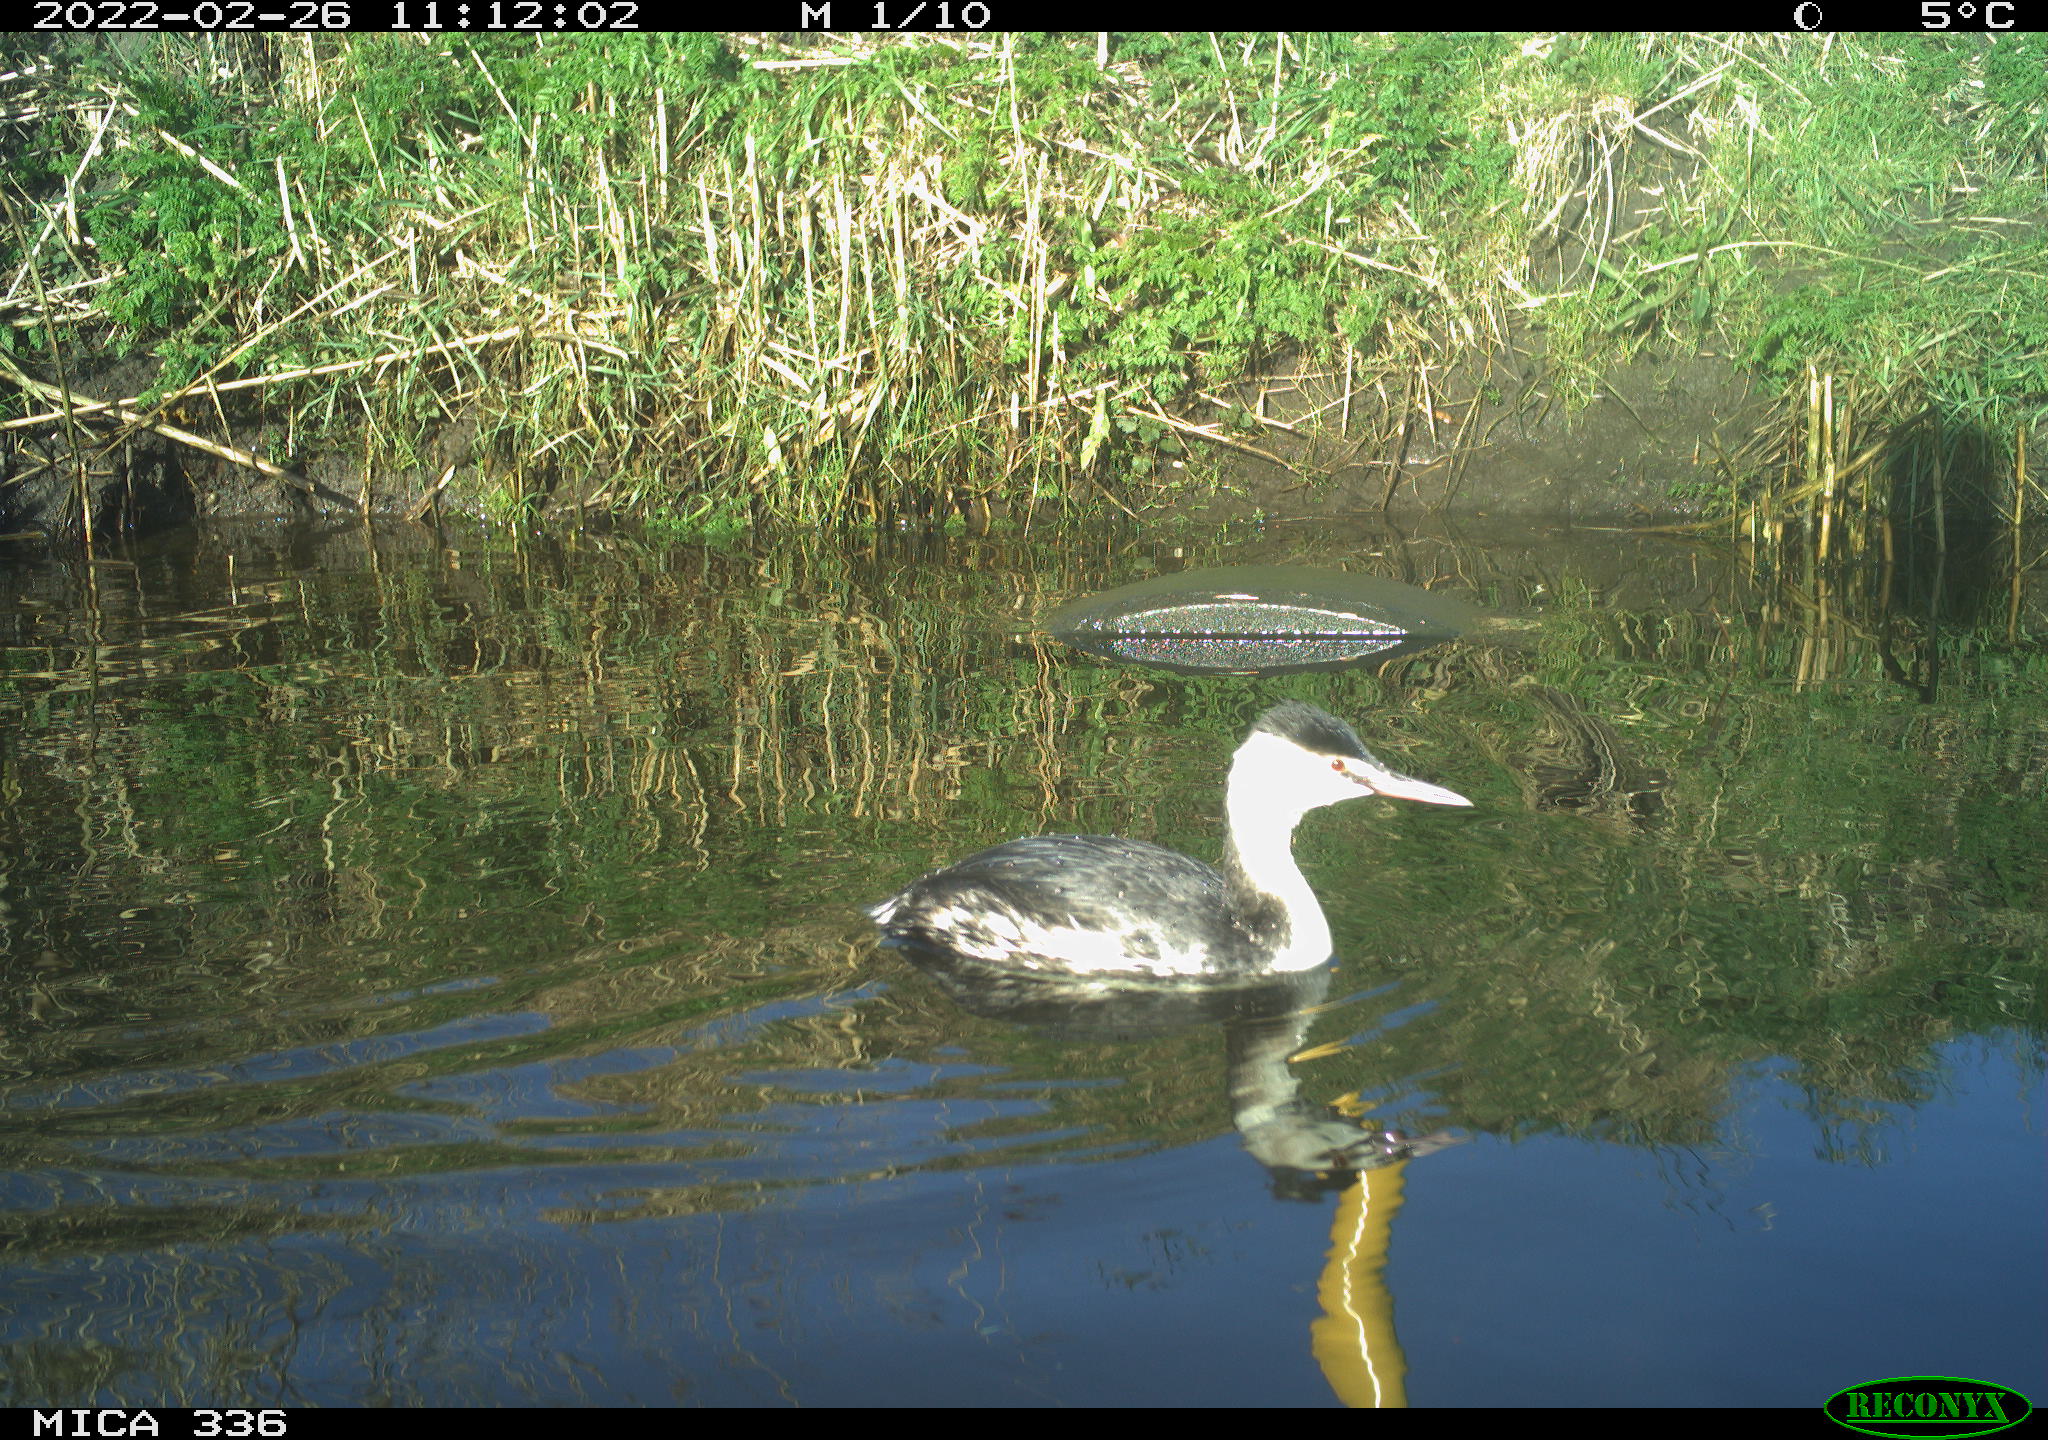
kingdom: Animalia
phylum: Chordata
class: Aves
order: Podicipediformes
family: Podicipedidae
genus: Podiceps
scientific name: Podiceps cristatus
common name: Great crested grebe
